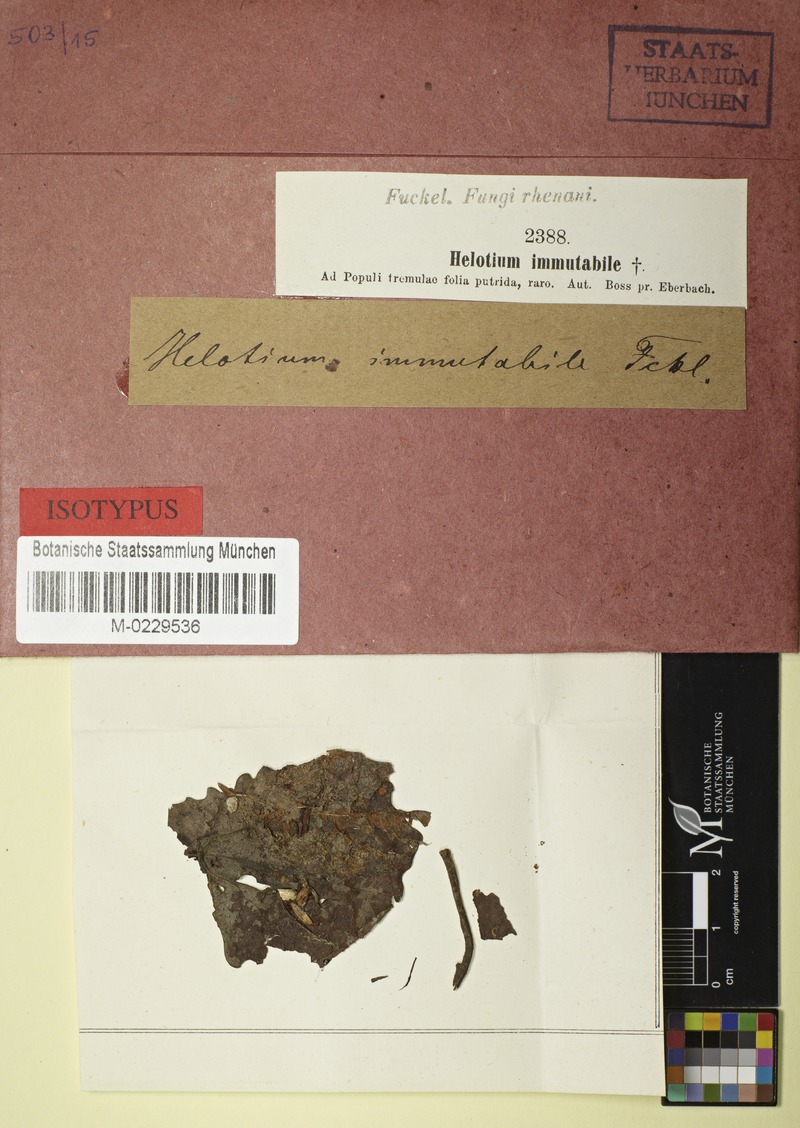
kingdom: Fungi
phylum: Ascomycota
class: Leotiomycetes
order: Helotiales
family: Helotiaceae
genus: Hymenoscyphus
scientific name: Hymenoscyphus immutabilis
